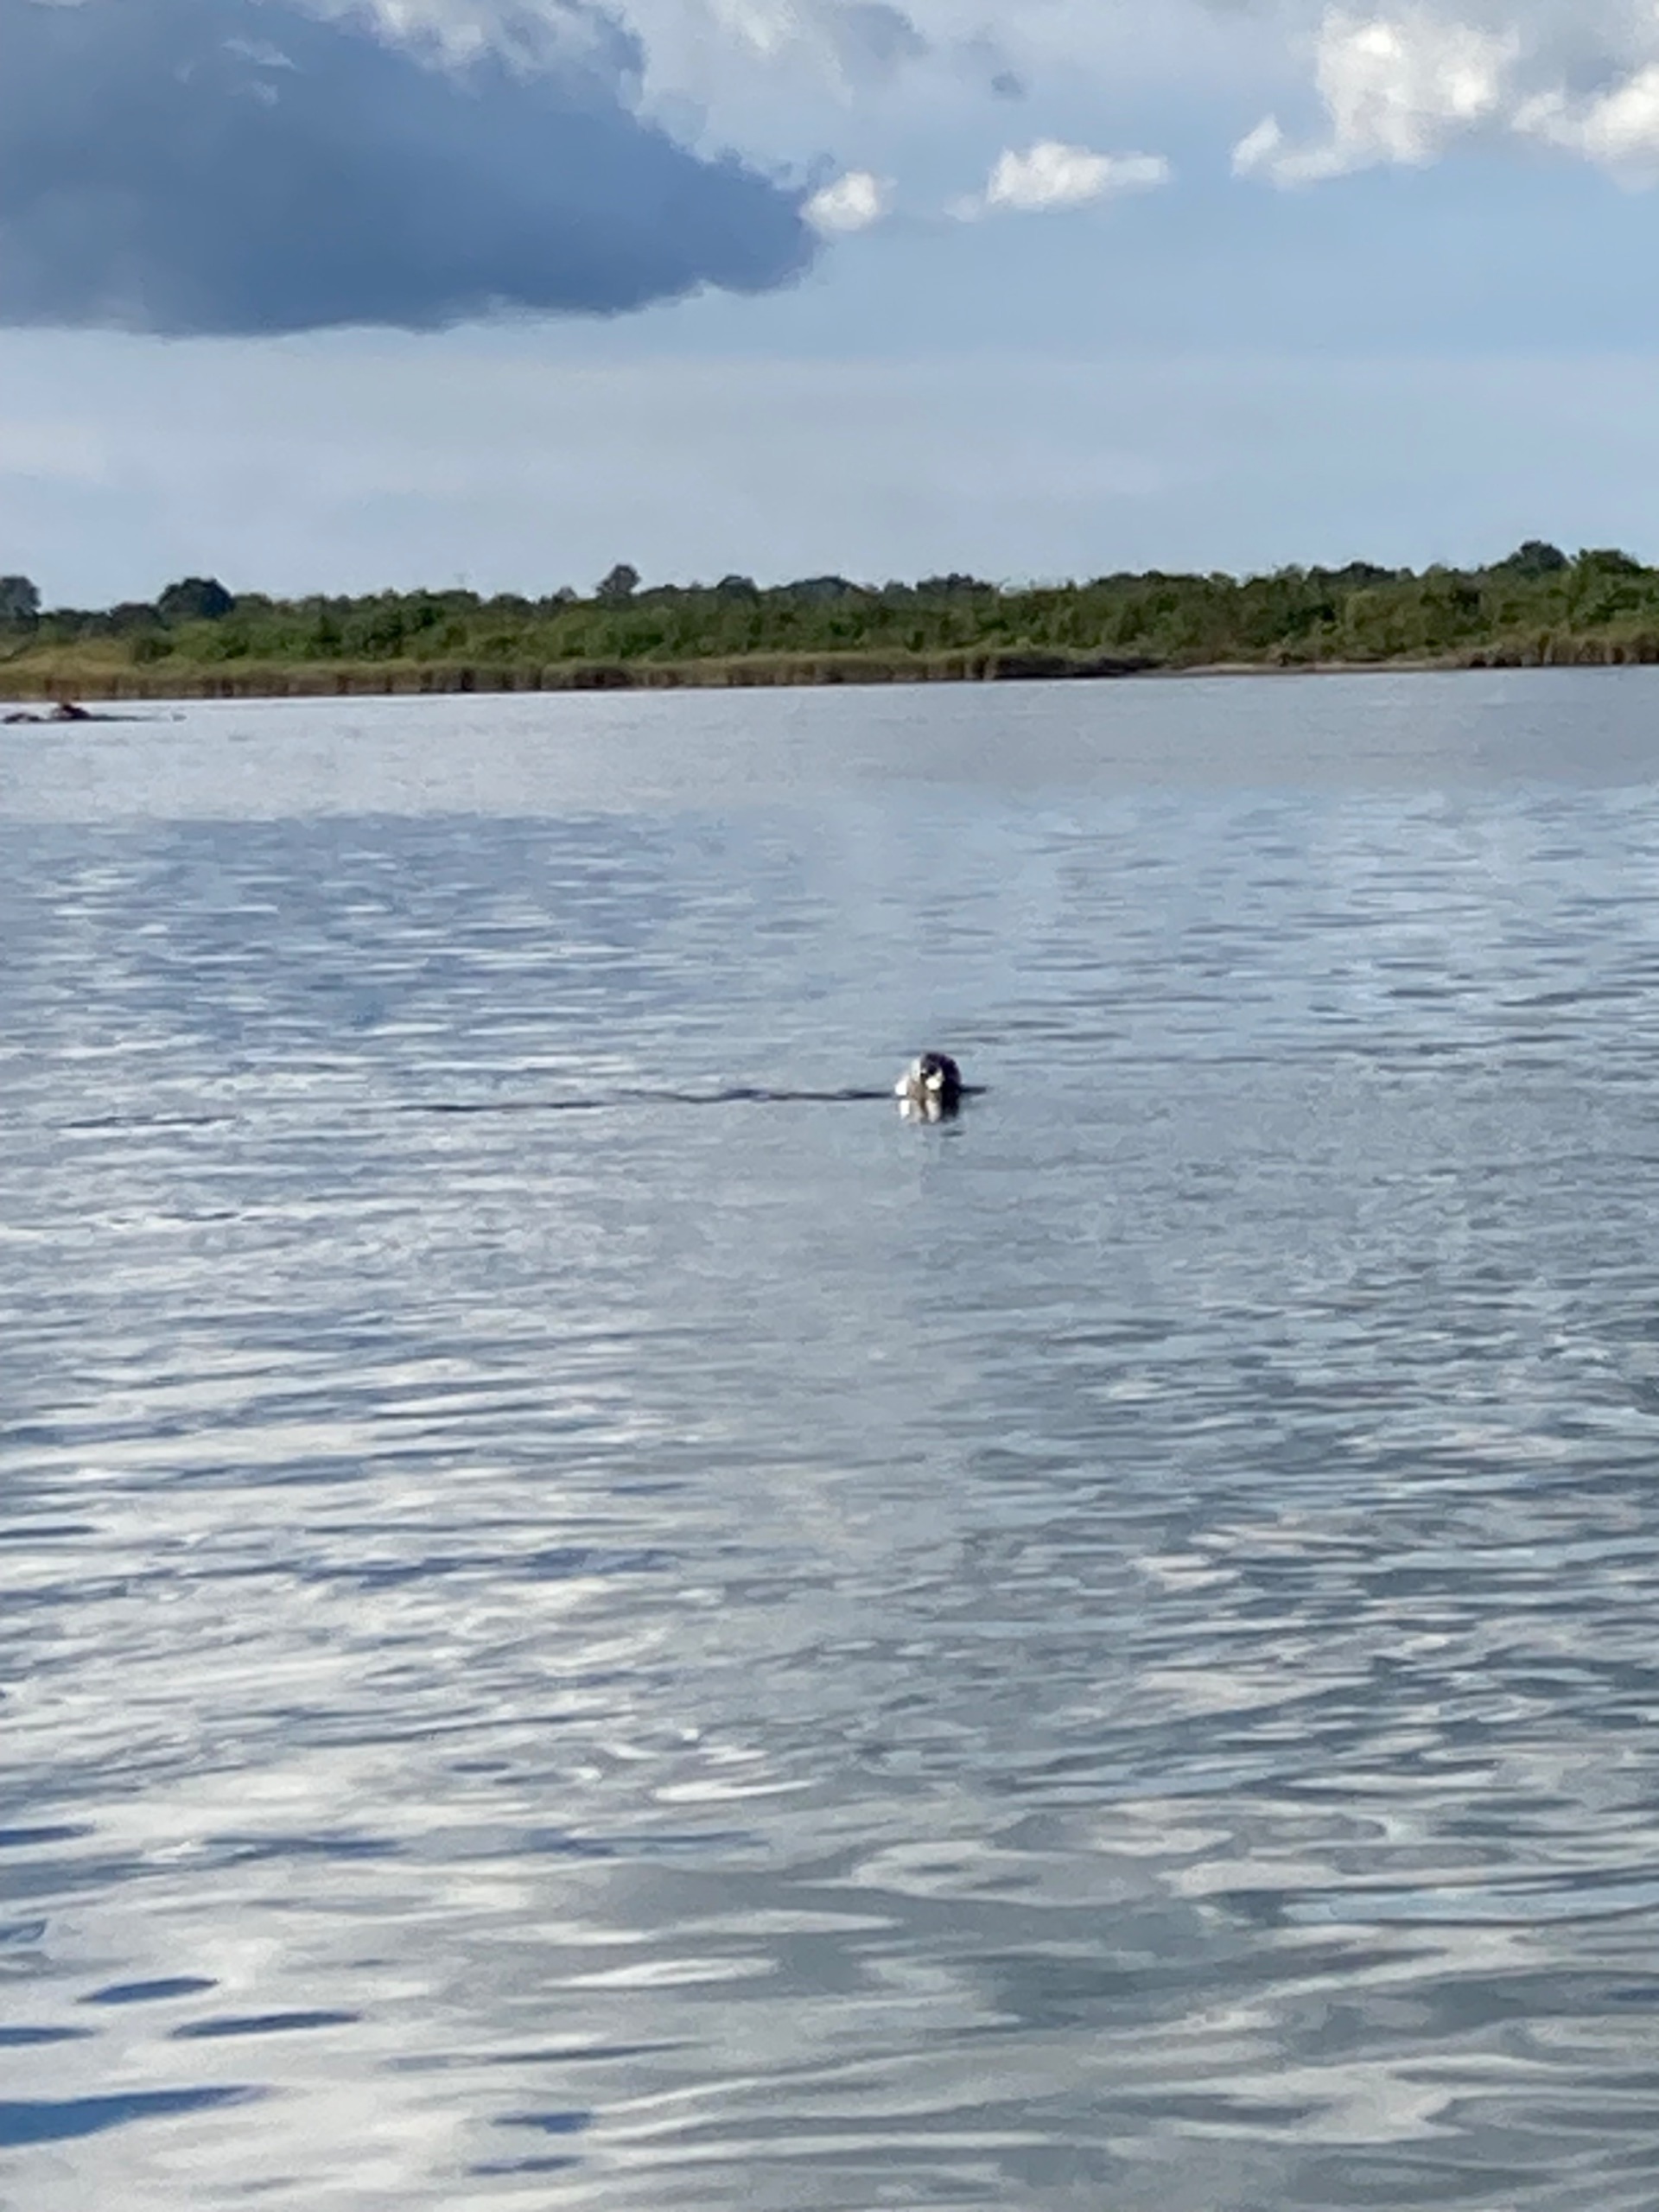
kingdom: Animalia
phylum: Chordata
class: Mammalia
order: Carnivora
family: Phocidae
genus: Phoca
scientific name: Phoca vitulina
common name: Spættet sæl
